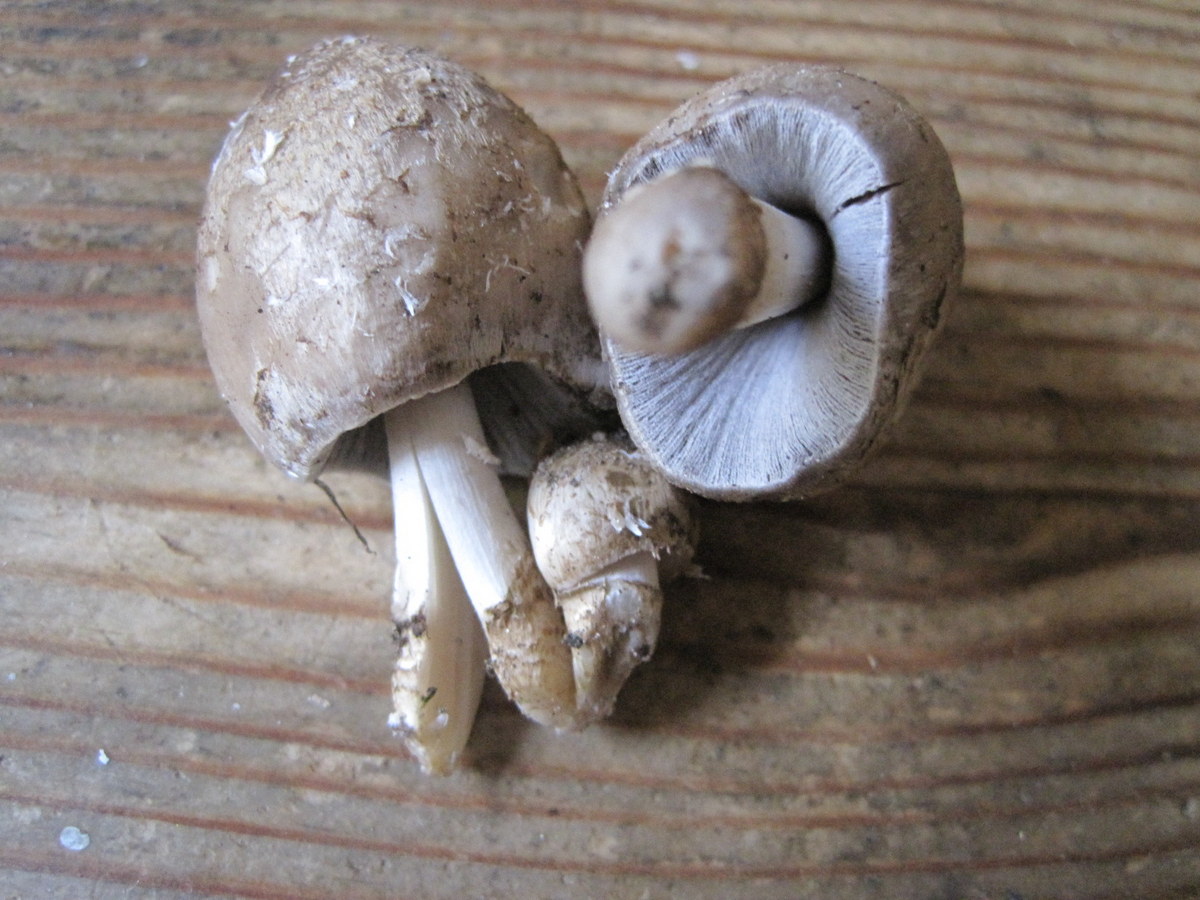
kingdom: Fungi
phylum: Basidiomycota
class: Agaricomycetes
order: Agaricales
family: Hymenogastraceae
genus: Psilocybe
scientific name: Psilocybe coronilla
